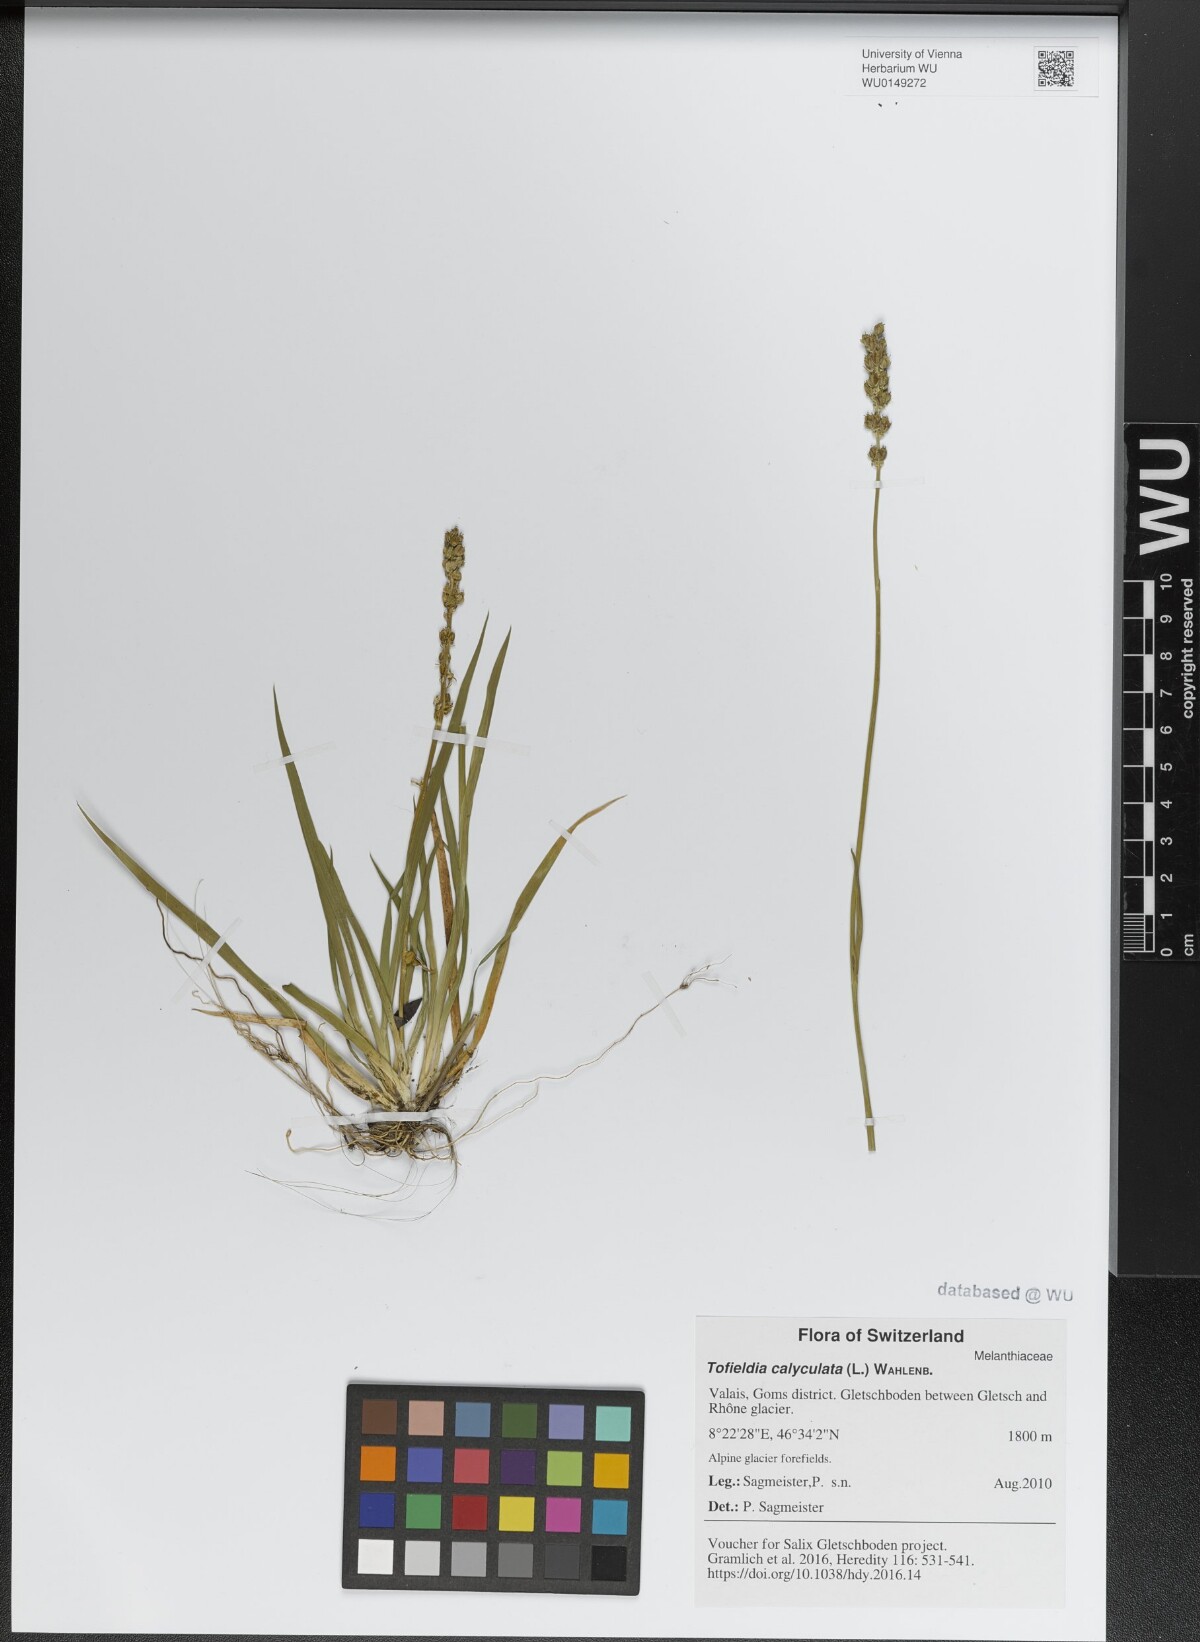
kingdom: Plantae
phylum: Tracheophyta
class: Liliopsida
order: Alismatales
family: Tofieldiaceae
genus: Tofieldia
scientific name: Tofieldia calyculata
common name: German-asphodel
